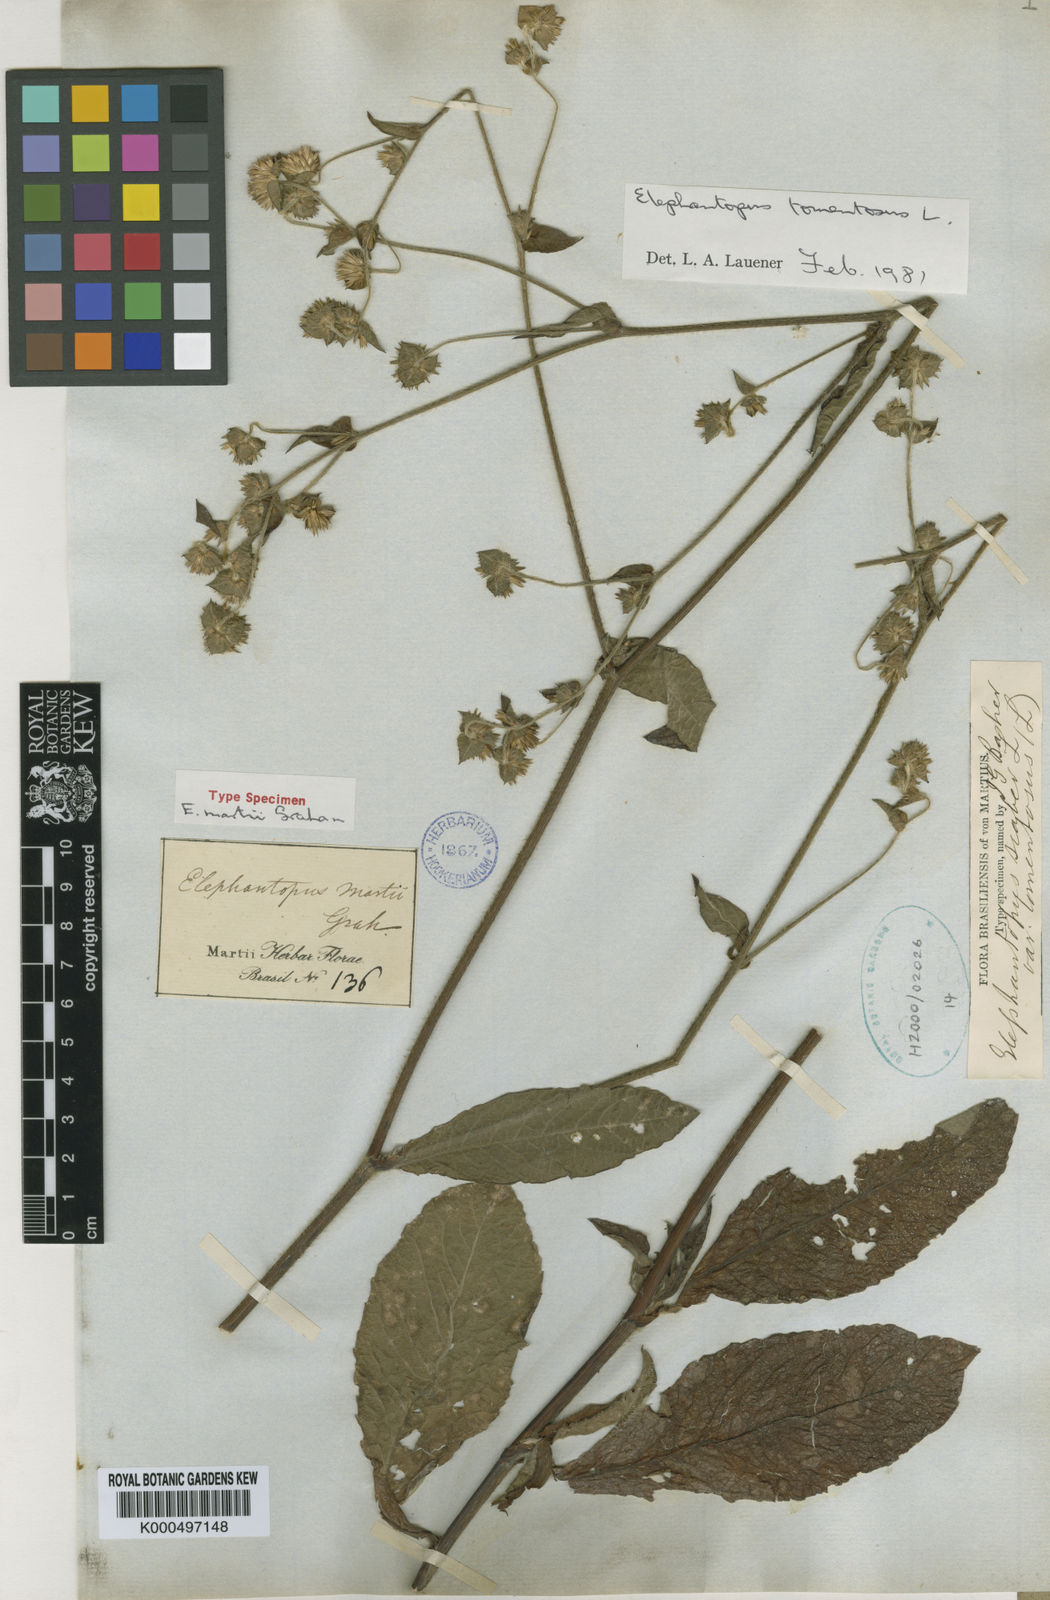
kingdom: Plantae
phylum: Tracheophyta
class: Magnoliopsida
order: Asterales
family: Asteraceae
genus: Elephantopus
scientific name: Elephantopus mollis
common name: Soft elephantsfoot
